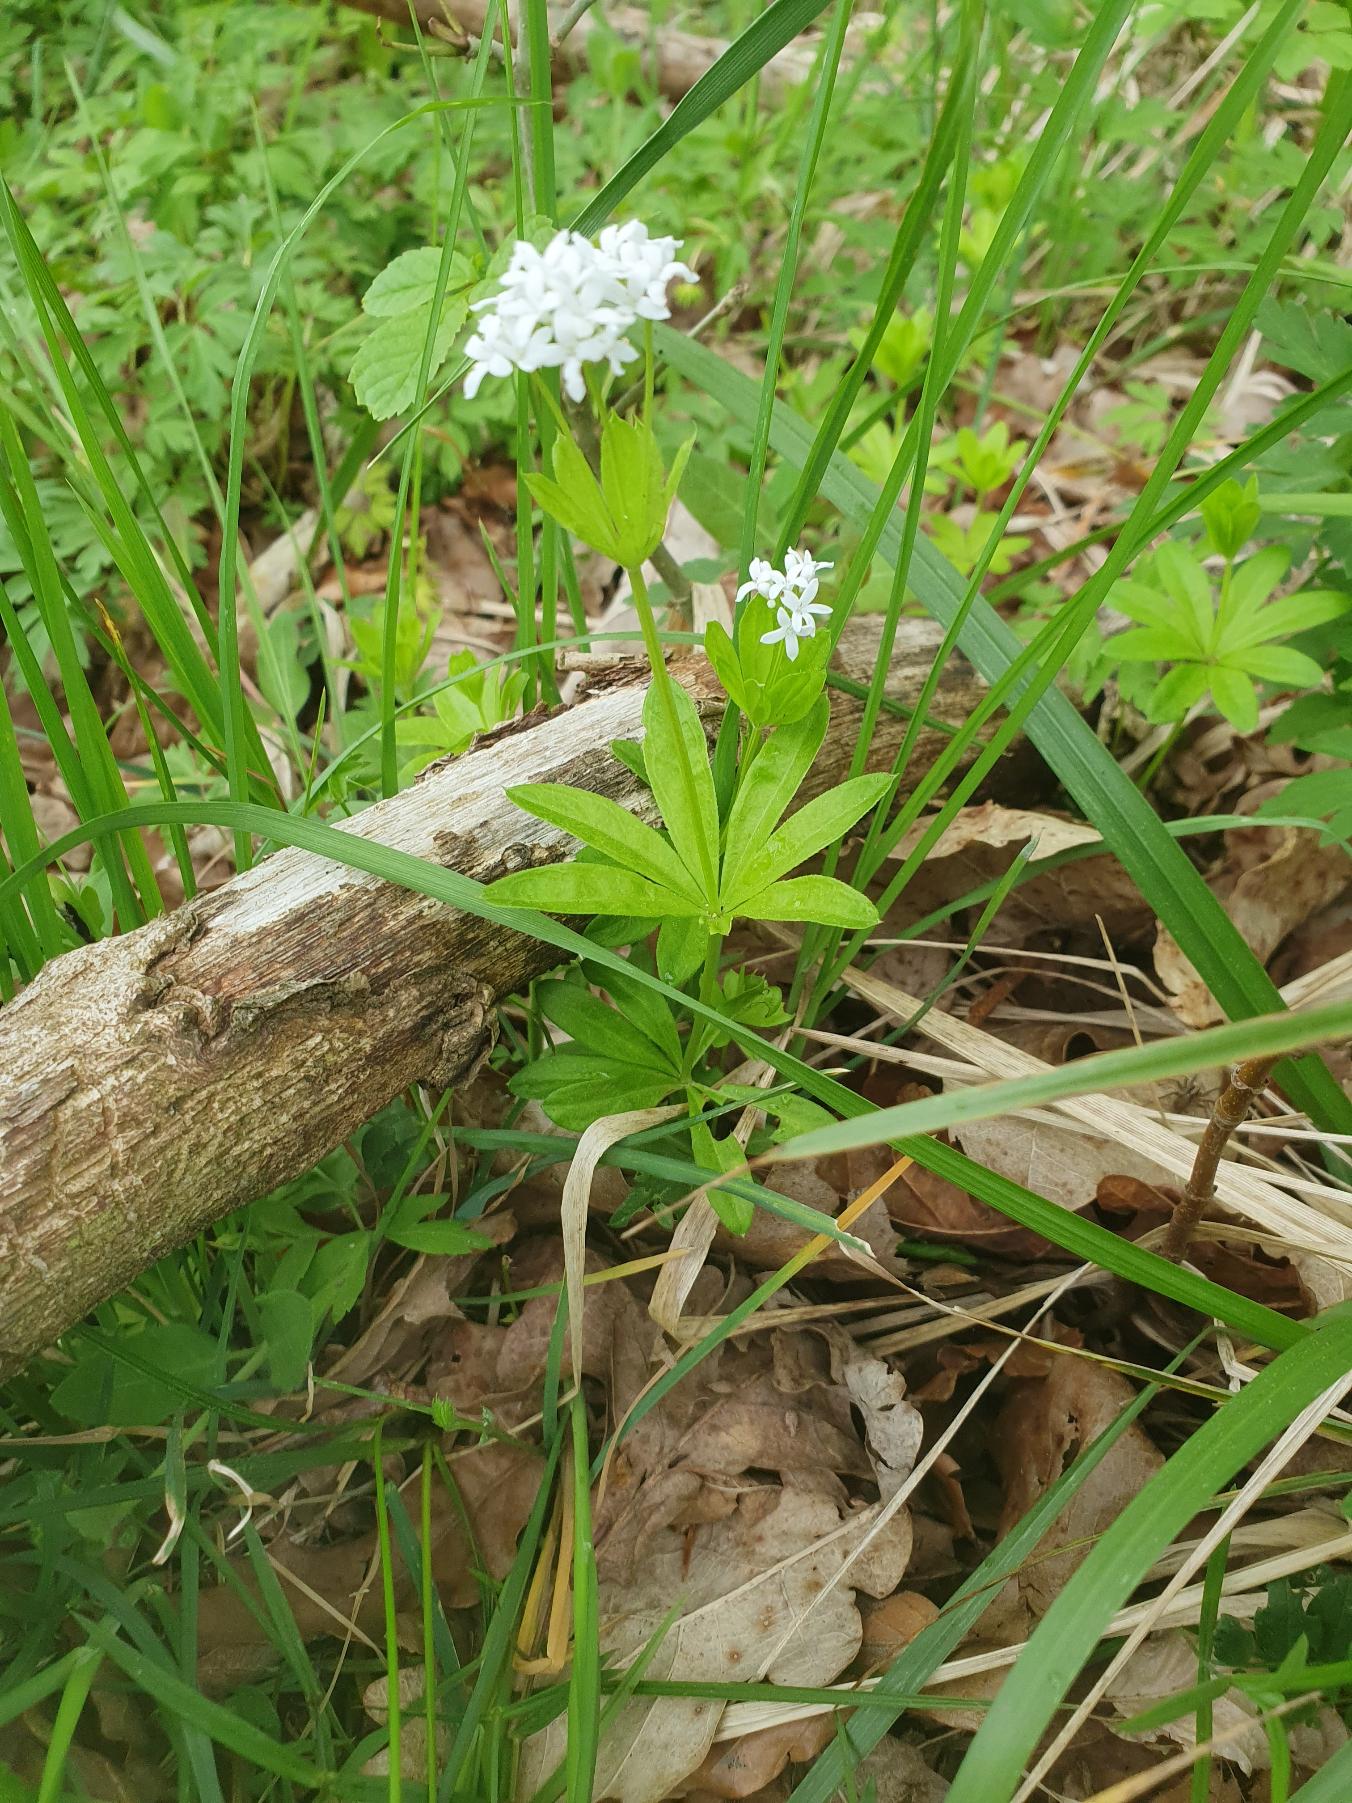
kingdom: Plantae
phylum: Tracheophyta
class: Magnoliopsida
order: Gentianales
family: Rubiaceae
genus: Galium
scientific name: Galium odoratum
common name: Skovmærke
